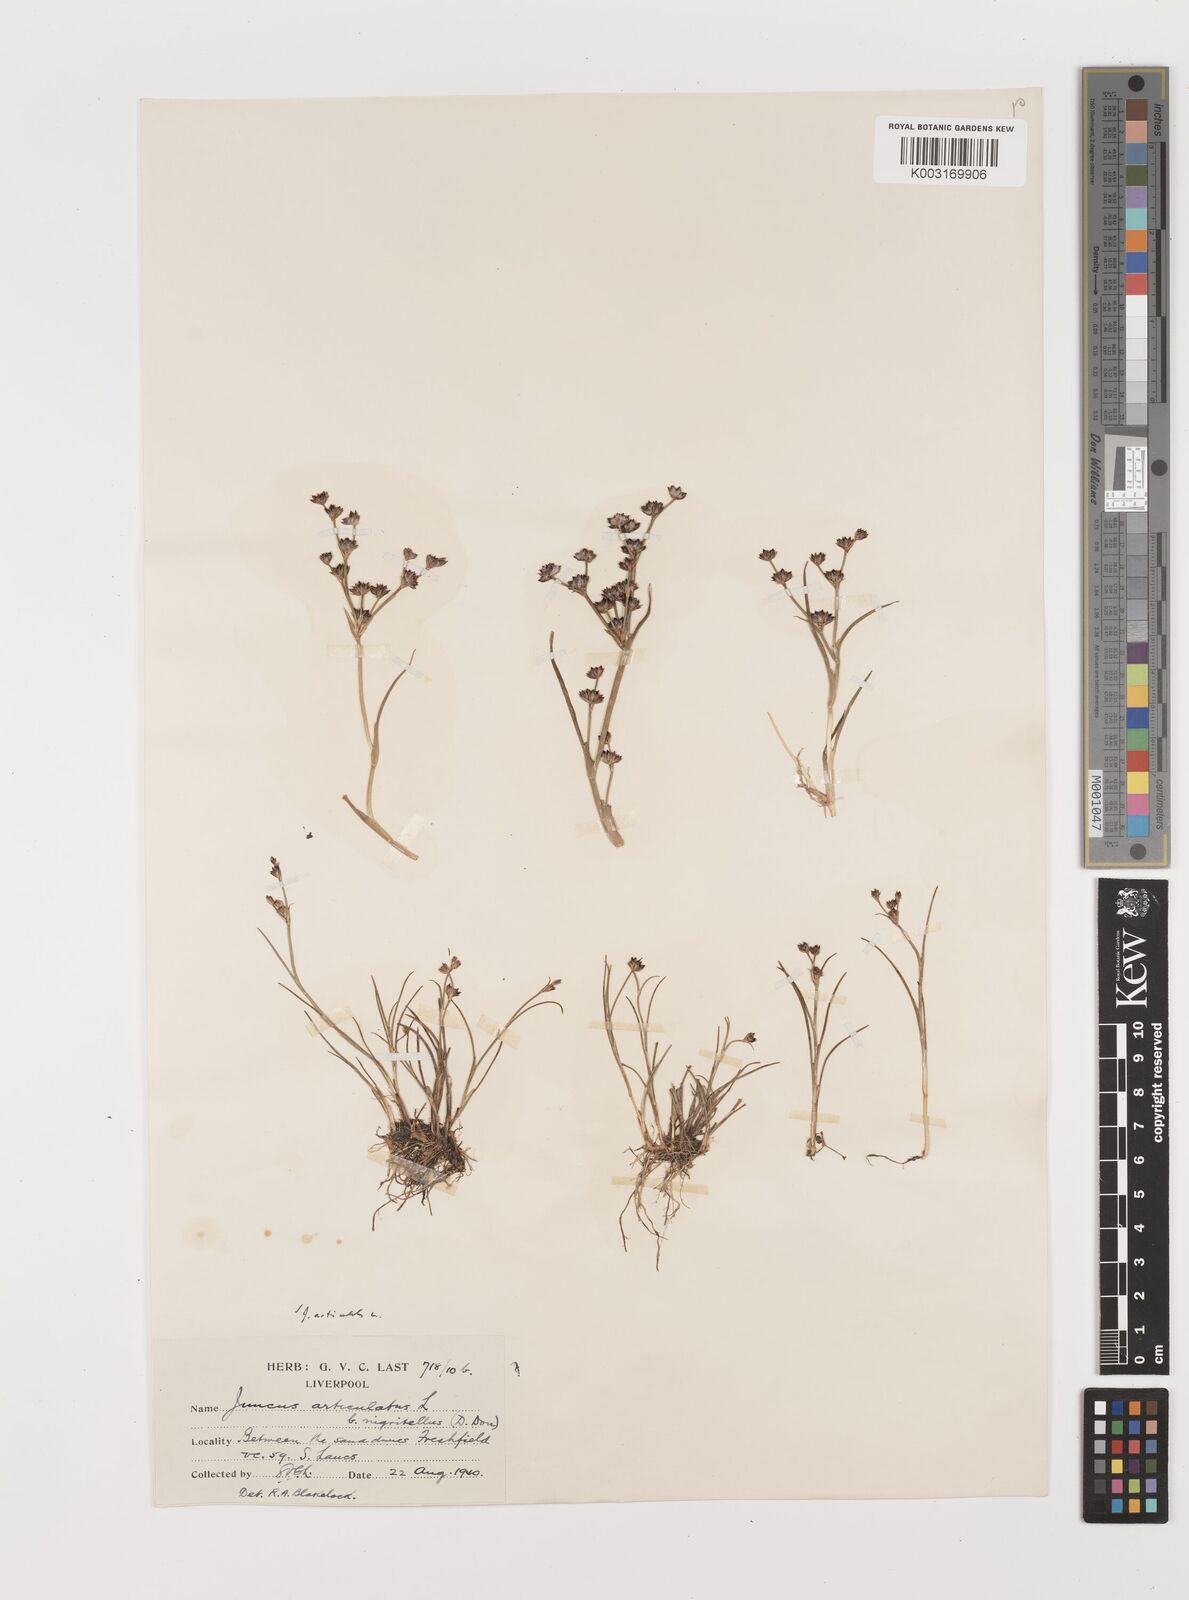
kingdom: Plantae
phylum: Tracheophyta
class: Liliopsida
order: Poales
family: Juncaceae
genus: Juncus
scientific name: Juncus articulatus
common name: Jointed rush
